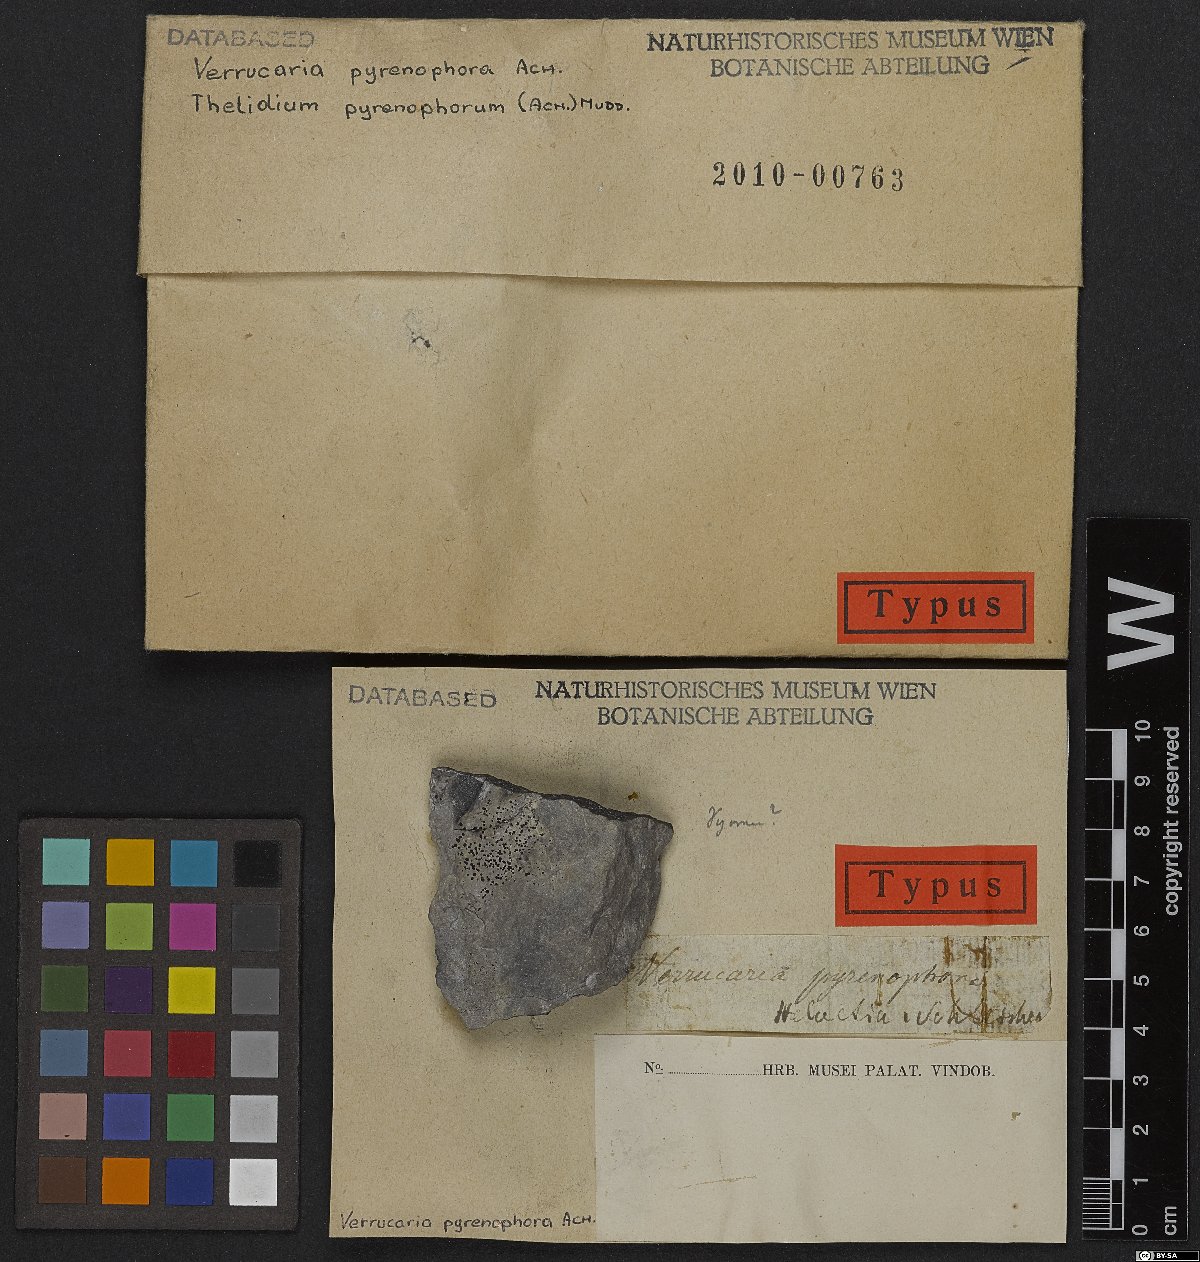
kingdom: Fungi
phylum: Ascomycota
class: Eurotiomycetes
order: Verrucariales
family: Verrucariaceae
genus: Thelidium
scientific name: Thelidium pyrenophorum
